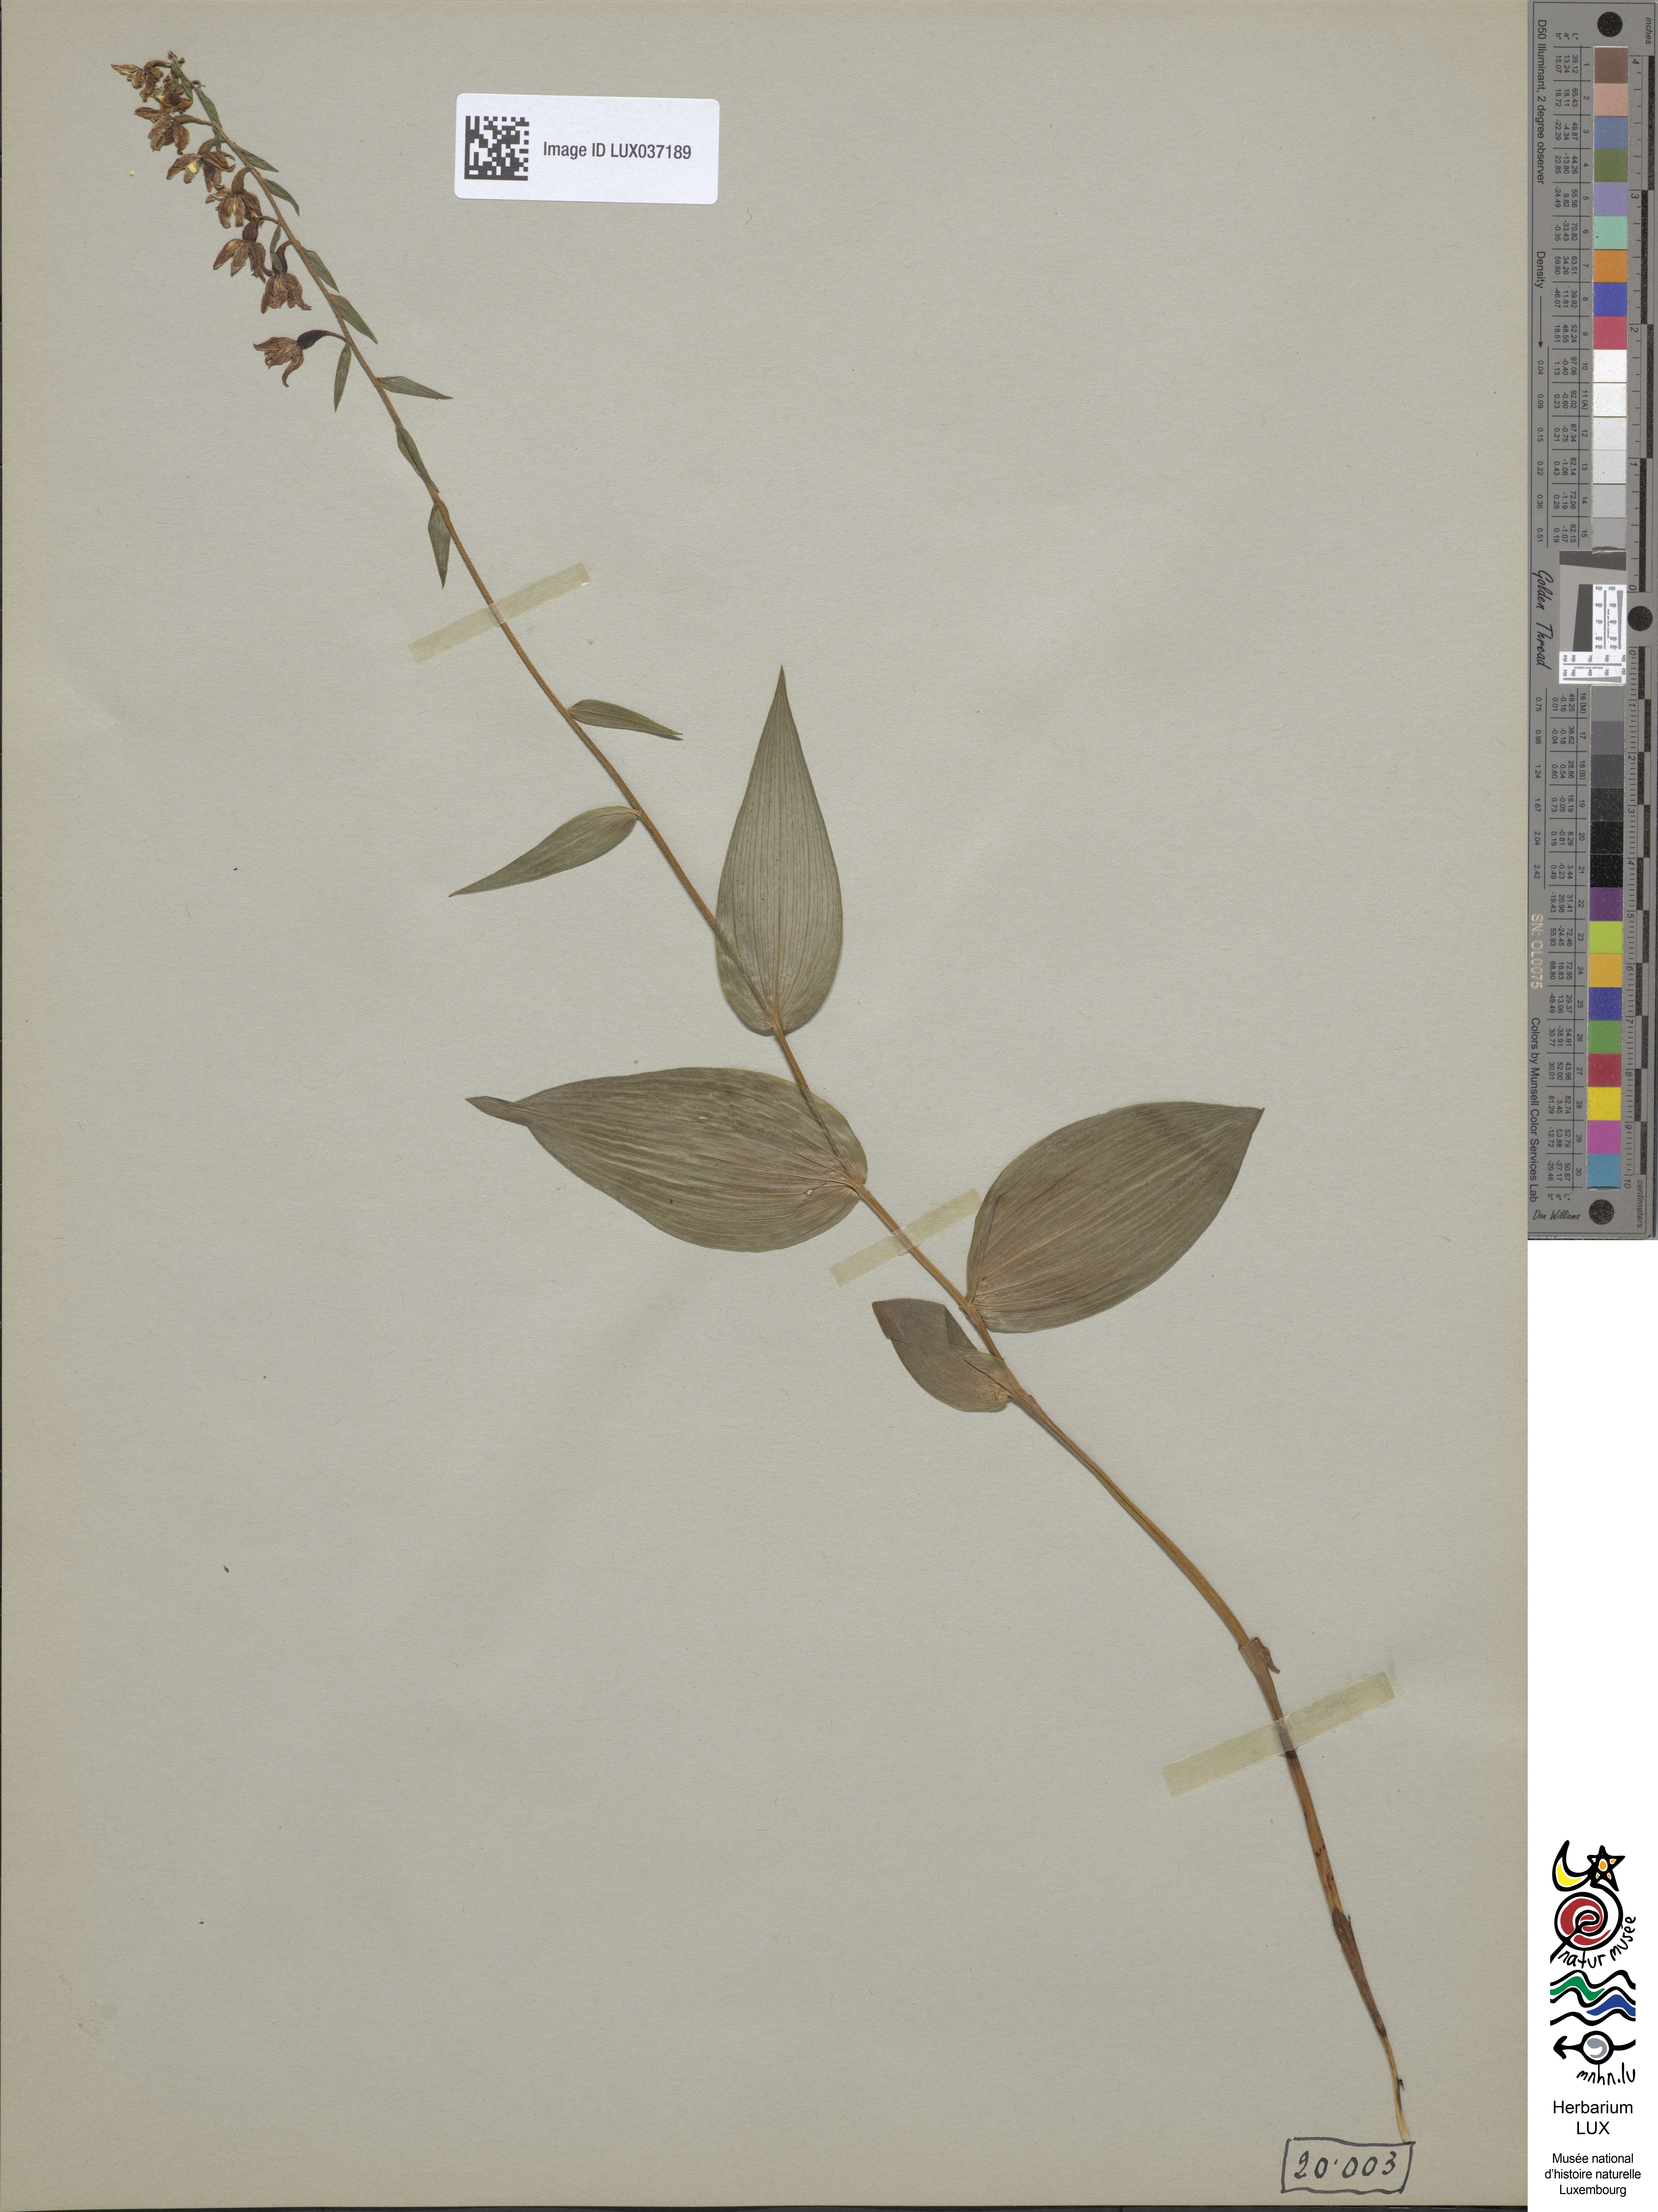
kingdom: Plantae
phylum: Tracheophyta
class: Liliopsida
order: Asparagales
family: Orchidaceae
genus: Epipactis
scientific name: Epipactis helleborine
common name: Broad-leaved helleborine
